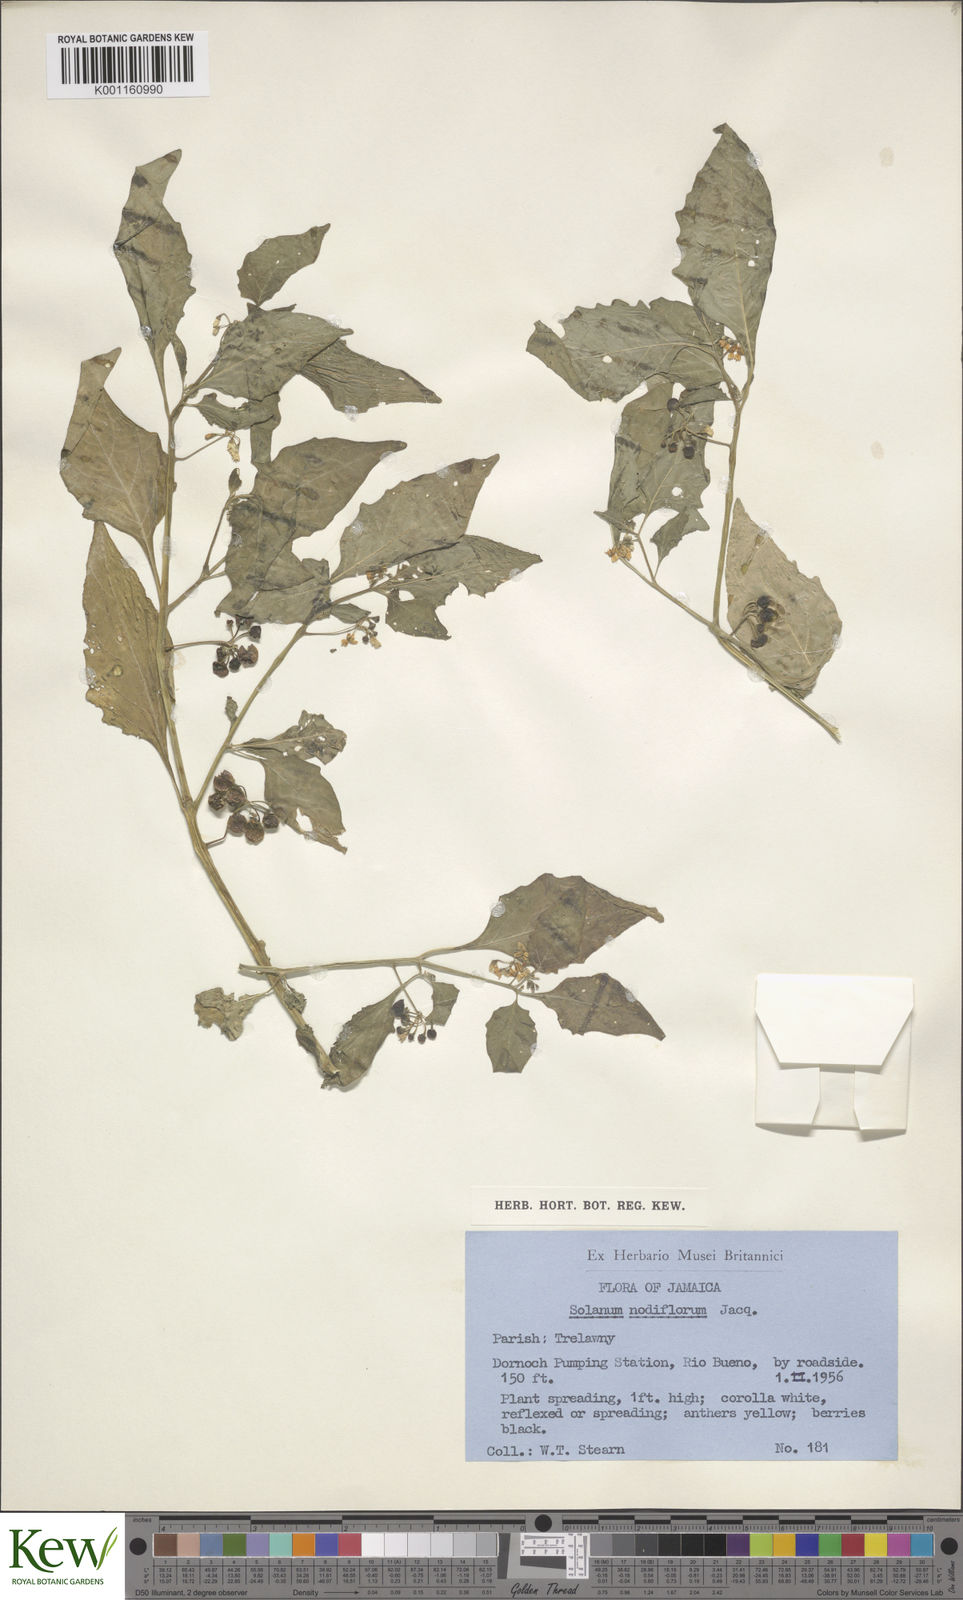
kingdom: Plantae
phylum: Tracheophyta
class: Magnoliopsida
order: Solanales
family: Solanaceae
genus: Solanum
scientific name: Solanum nigrum
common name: Black nightshade
